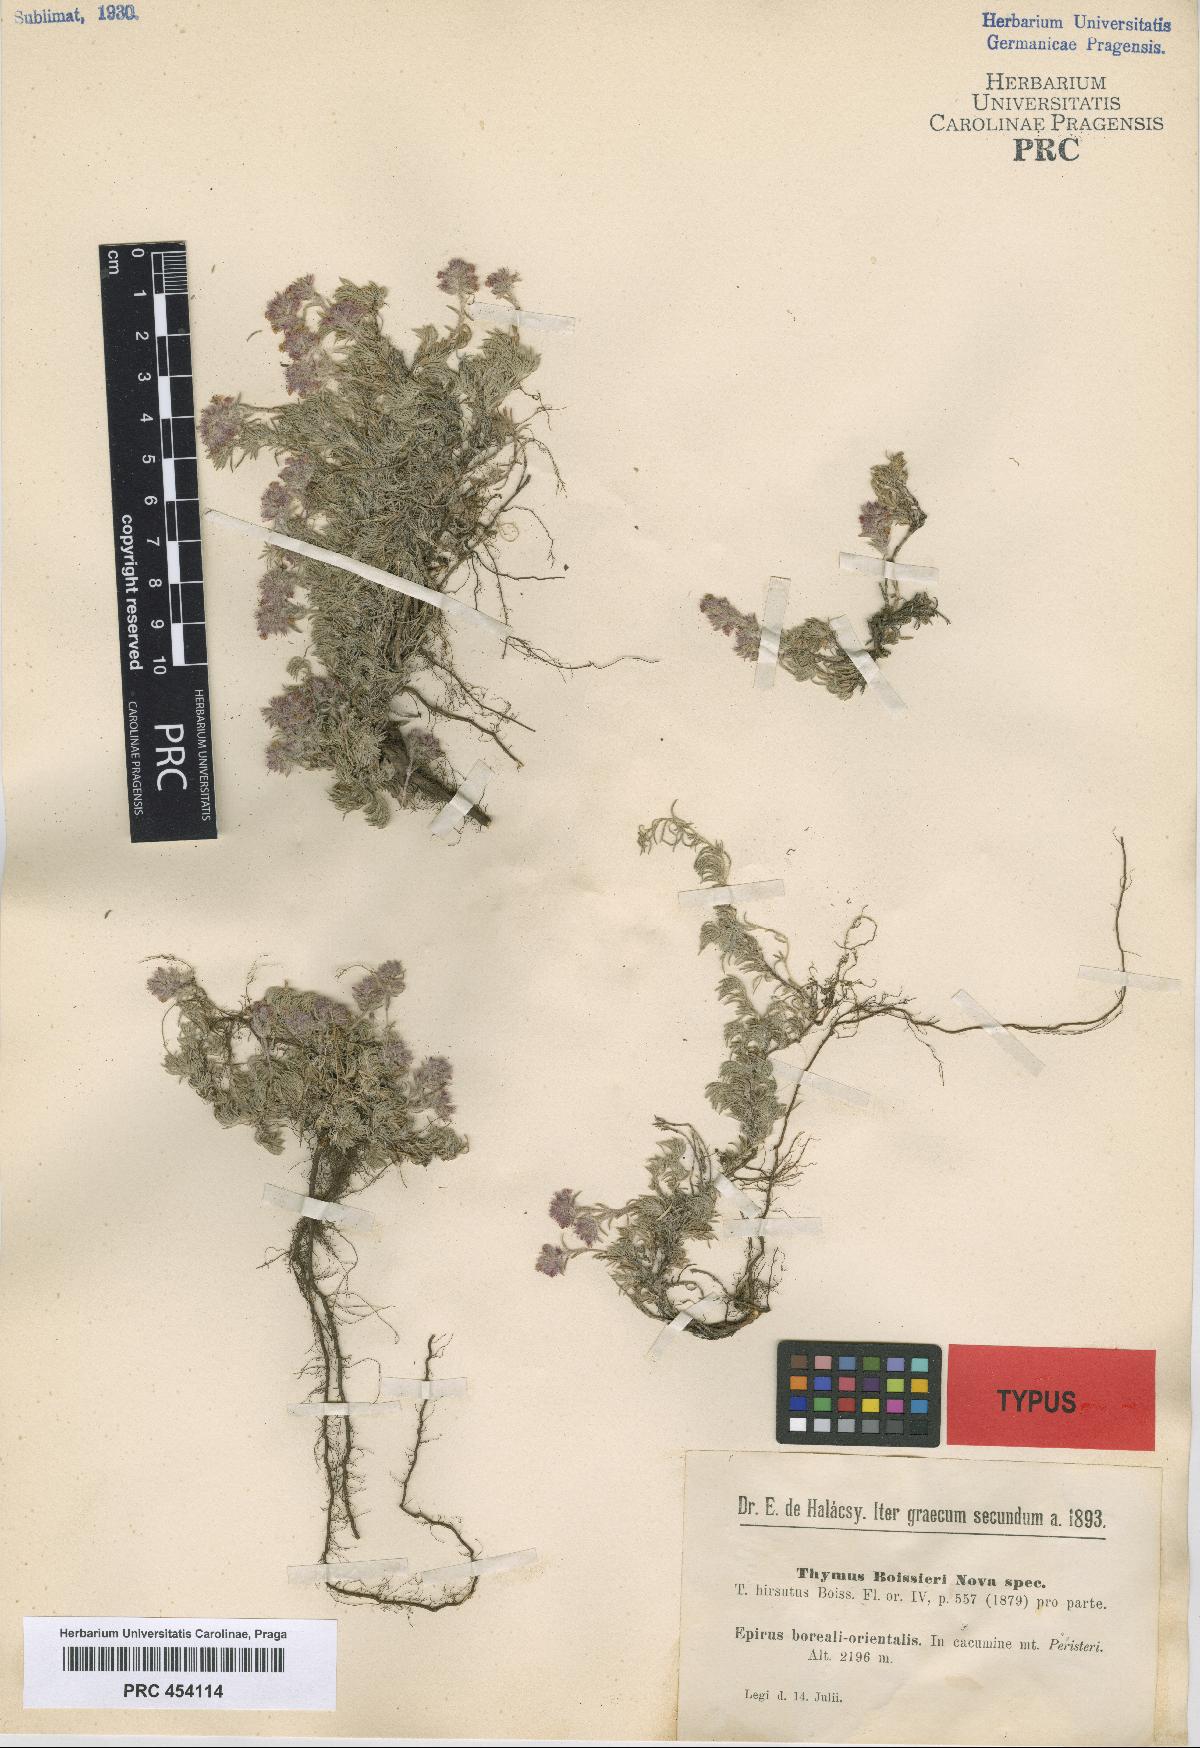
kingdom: Plantae
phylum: Tracheophyta
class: Magnoliopsida
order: Lamiales
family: Lamiaceae
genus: Thymus
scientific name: Thymus boissieri
